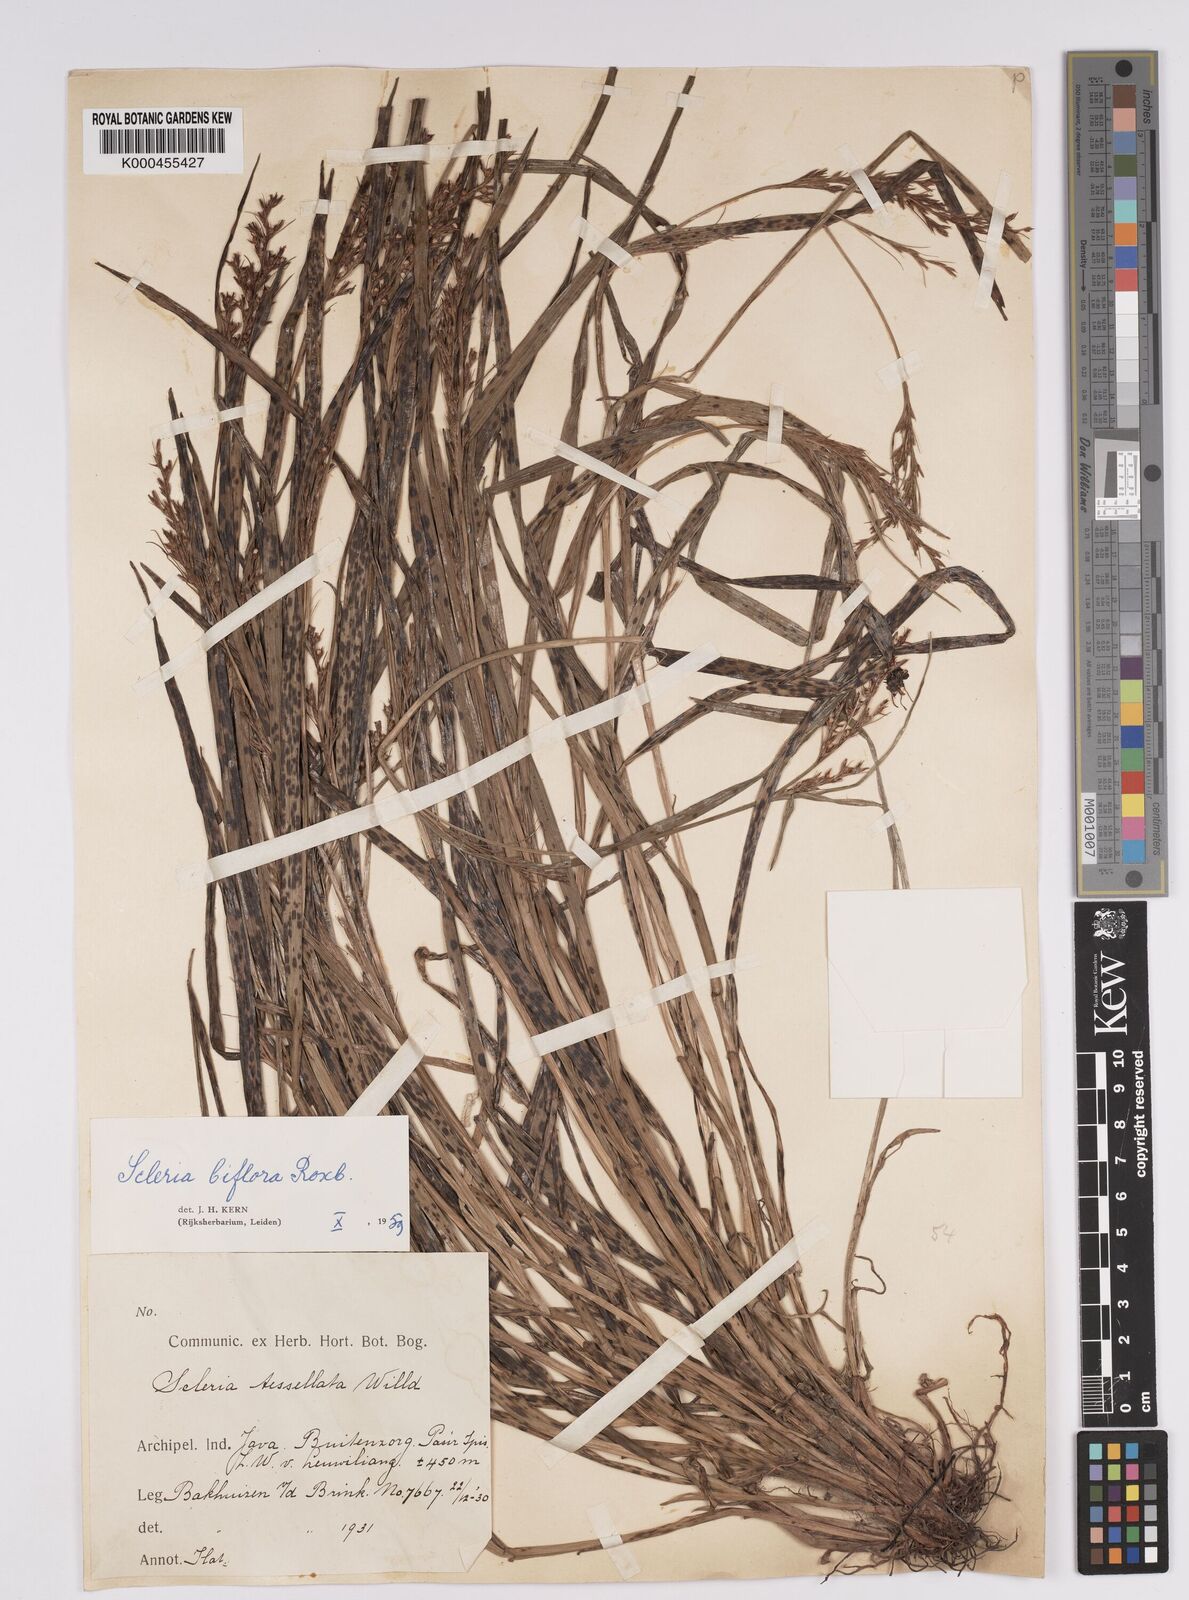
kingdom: Plantae
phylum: Tracheophyta
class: Liliopsida
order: Poales
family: Cyperaceae
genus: Scleria
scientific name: Scleria biflora
